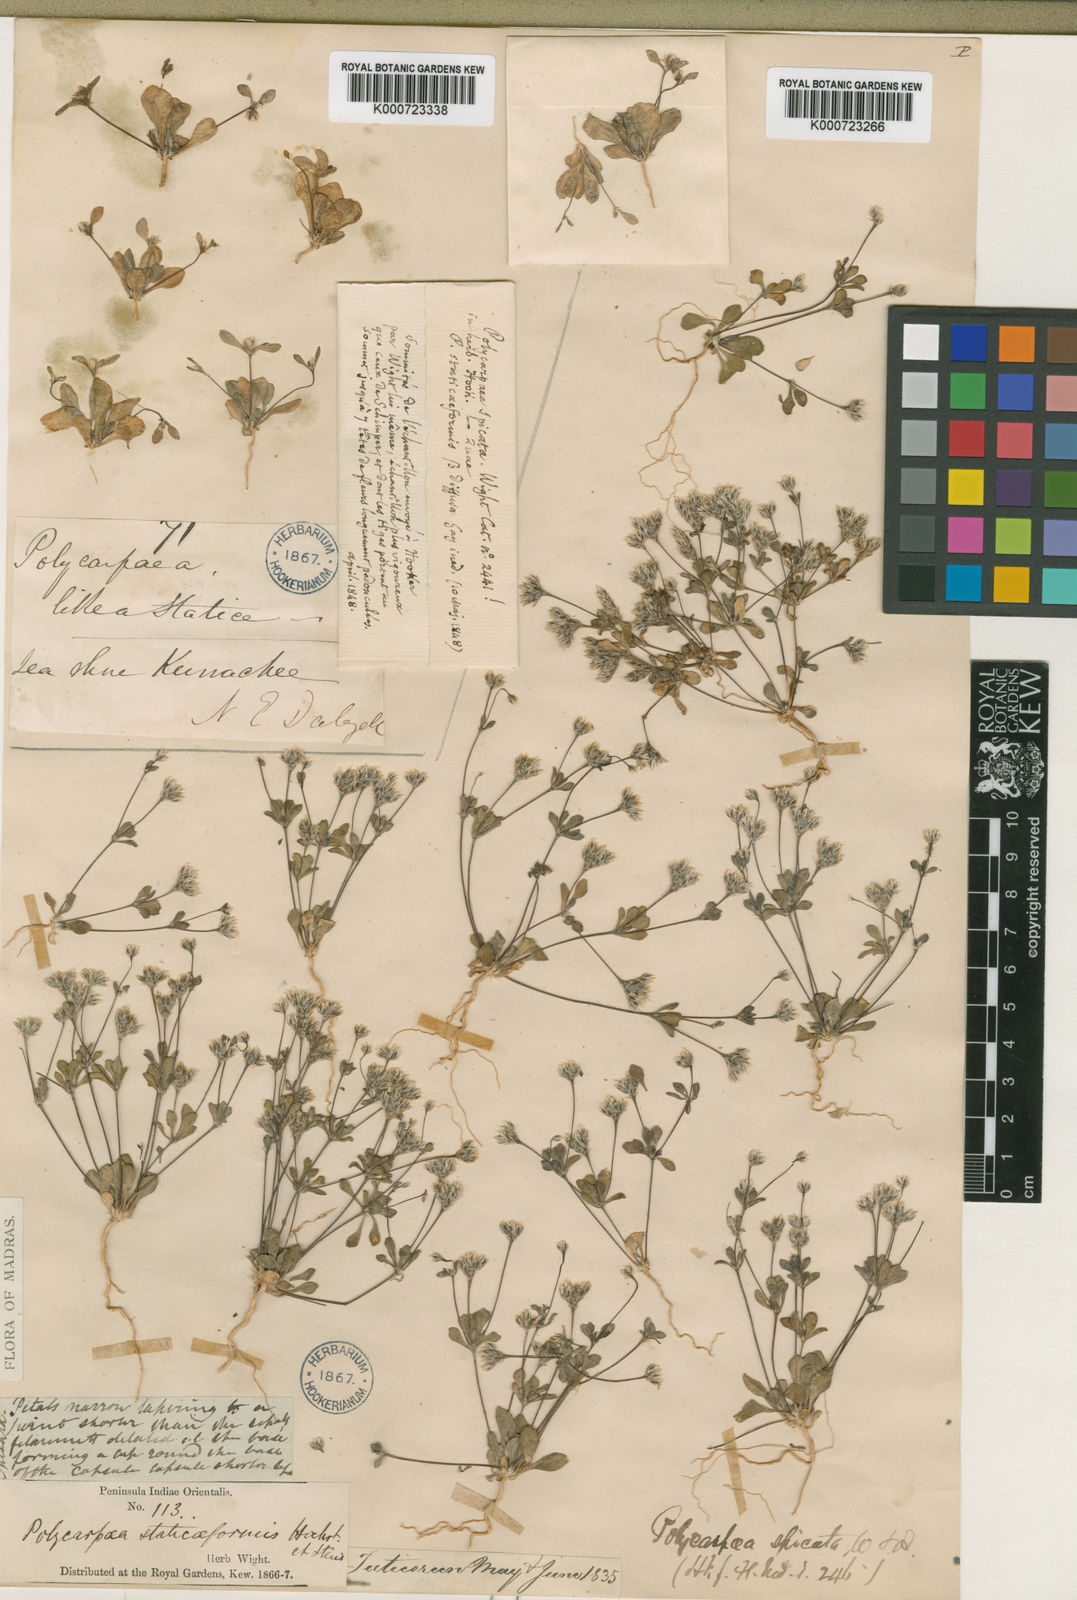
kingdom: Plantae
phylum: Tracheophyta
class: Magnoliopsida
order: Caryophyllales
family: Caryophyllaceae
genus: Polycarpaea
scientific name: Polycarpaea spicata
